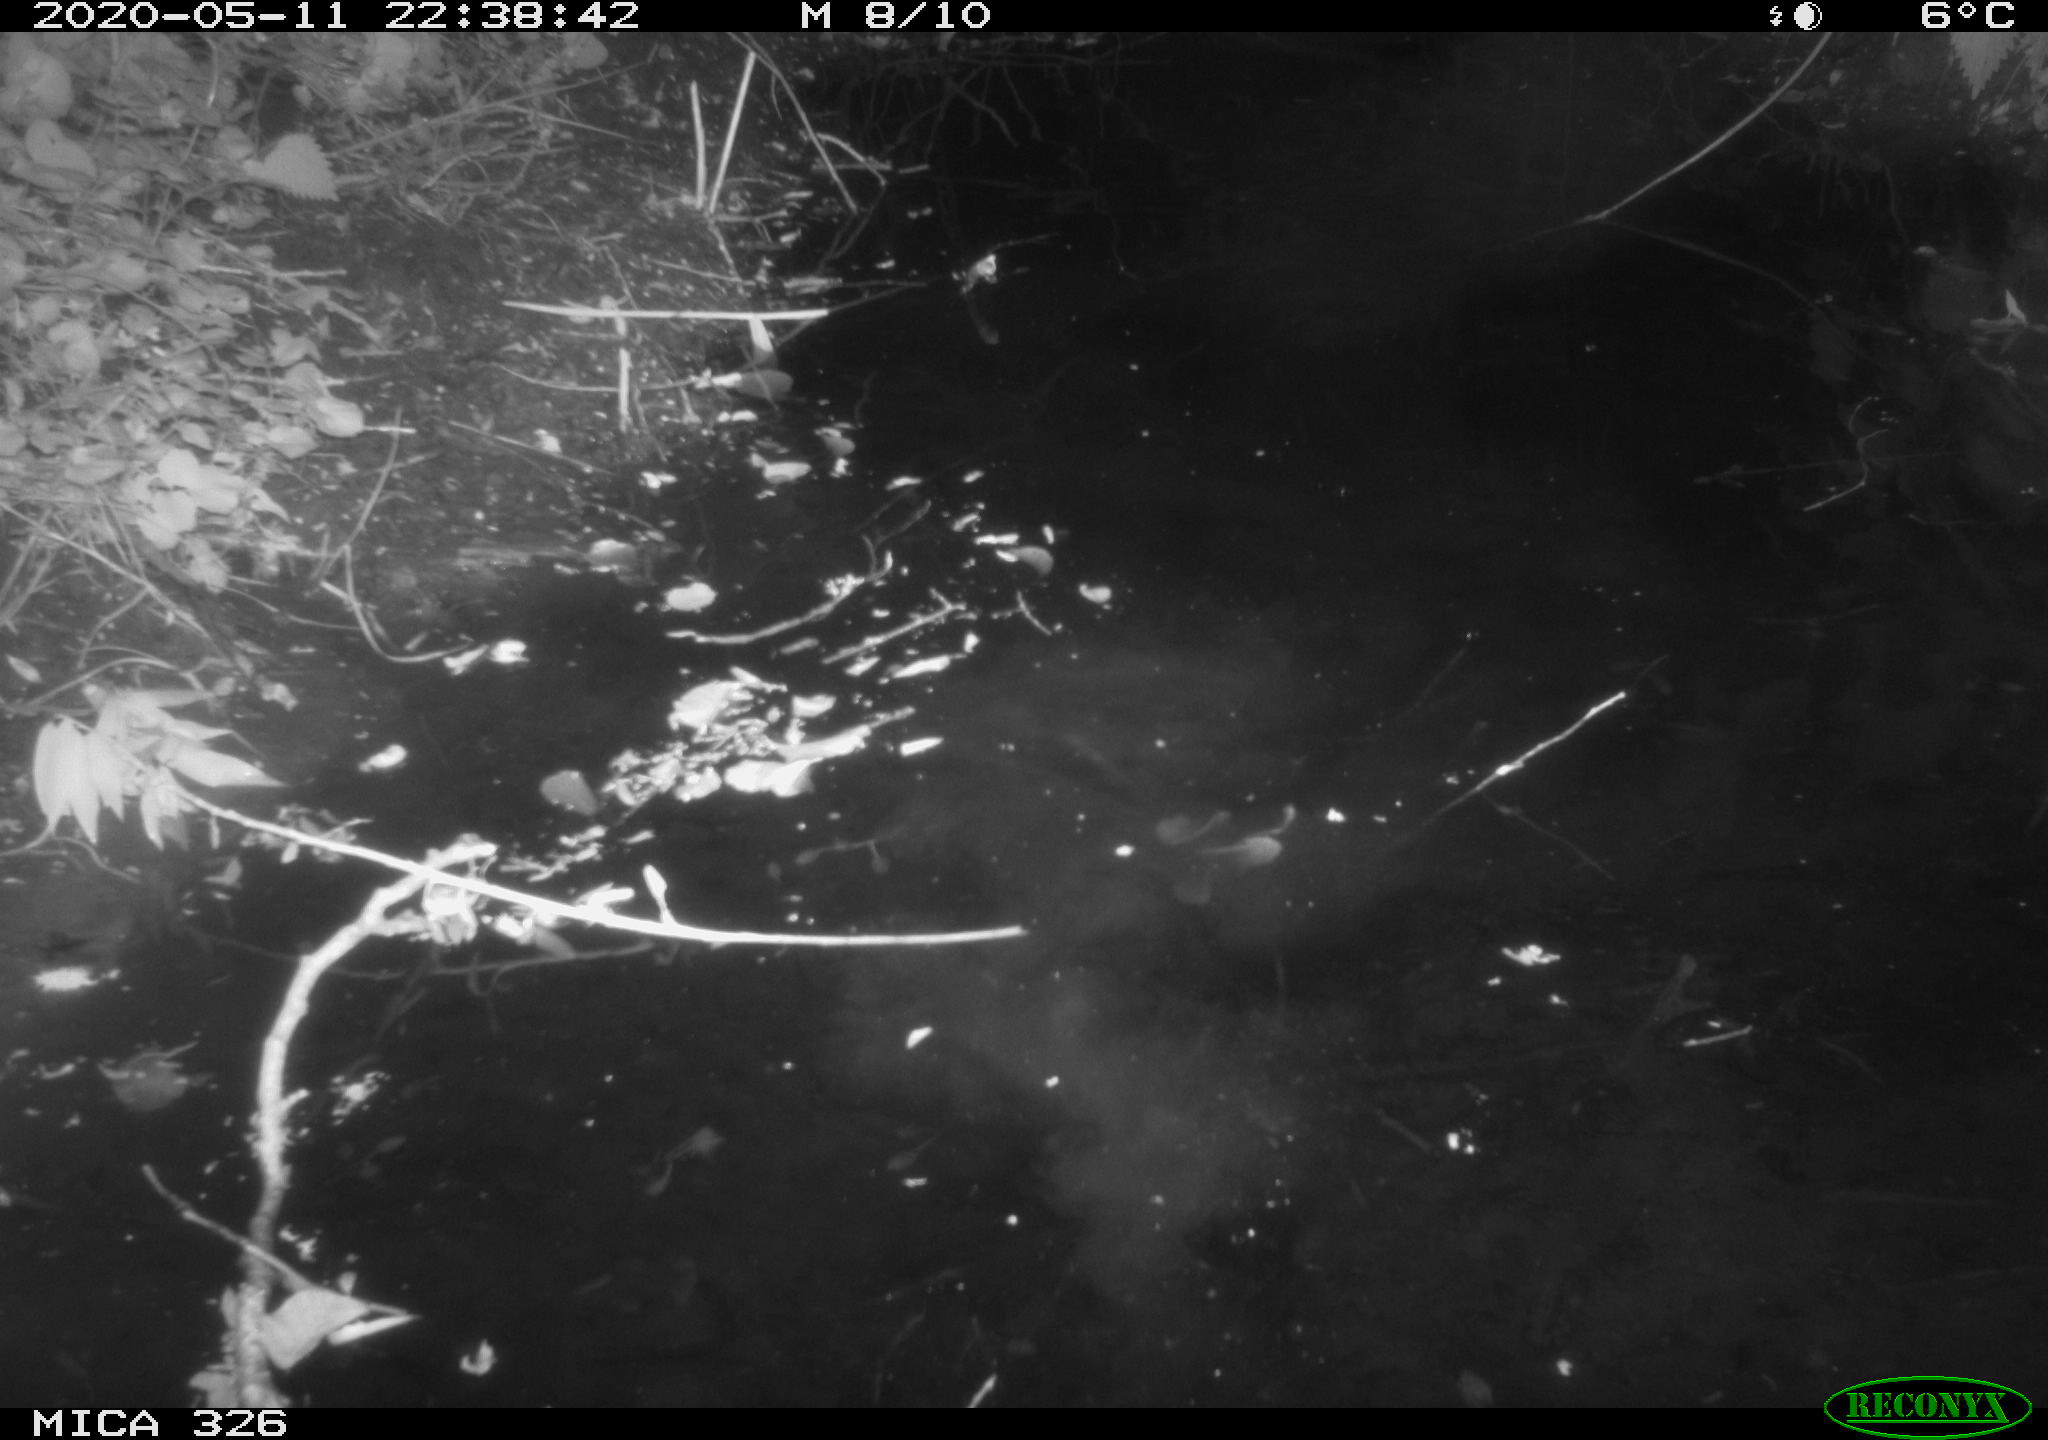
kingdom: Animalia
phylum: Chordata
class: Mammalia
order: Rodentia
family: Myocastoridae
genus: Myocastor
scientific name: Myocastor coypus
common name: Coypu
